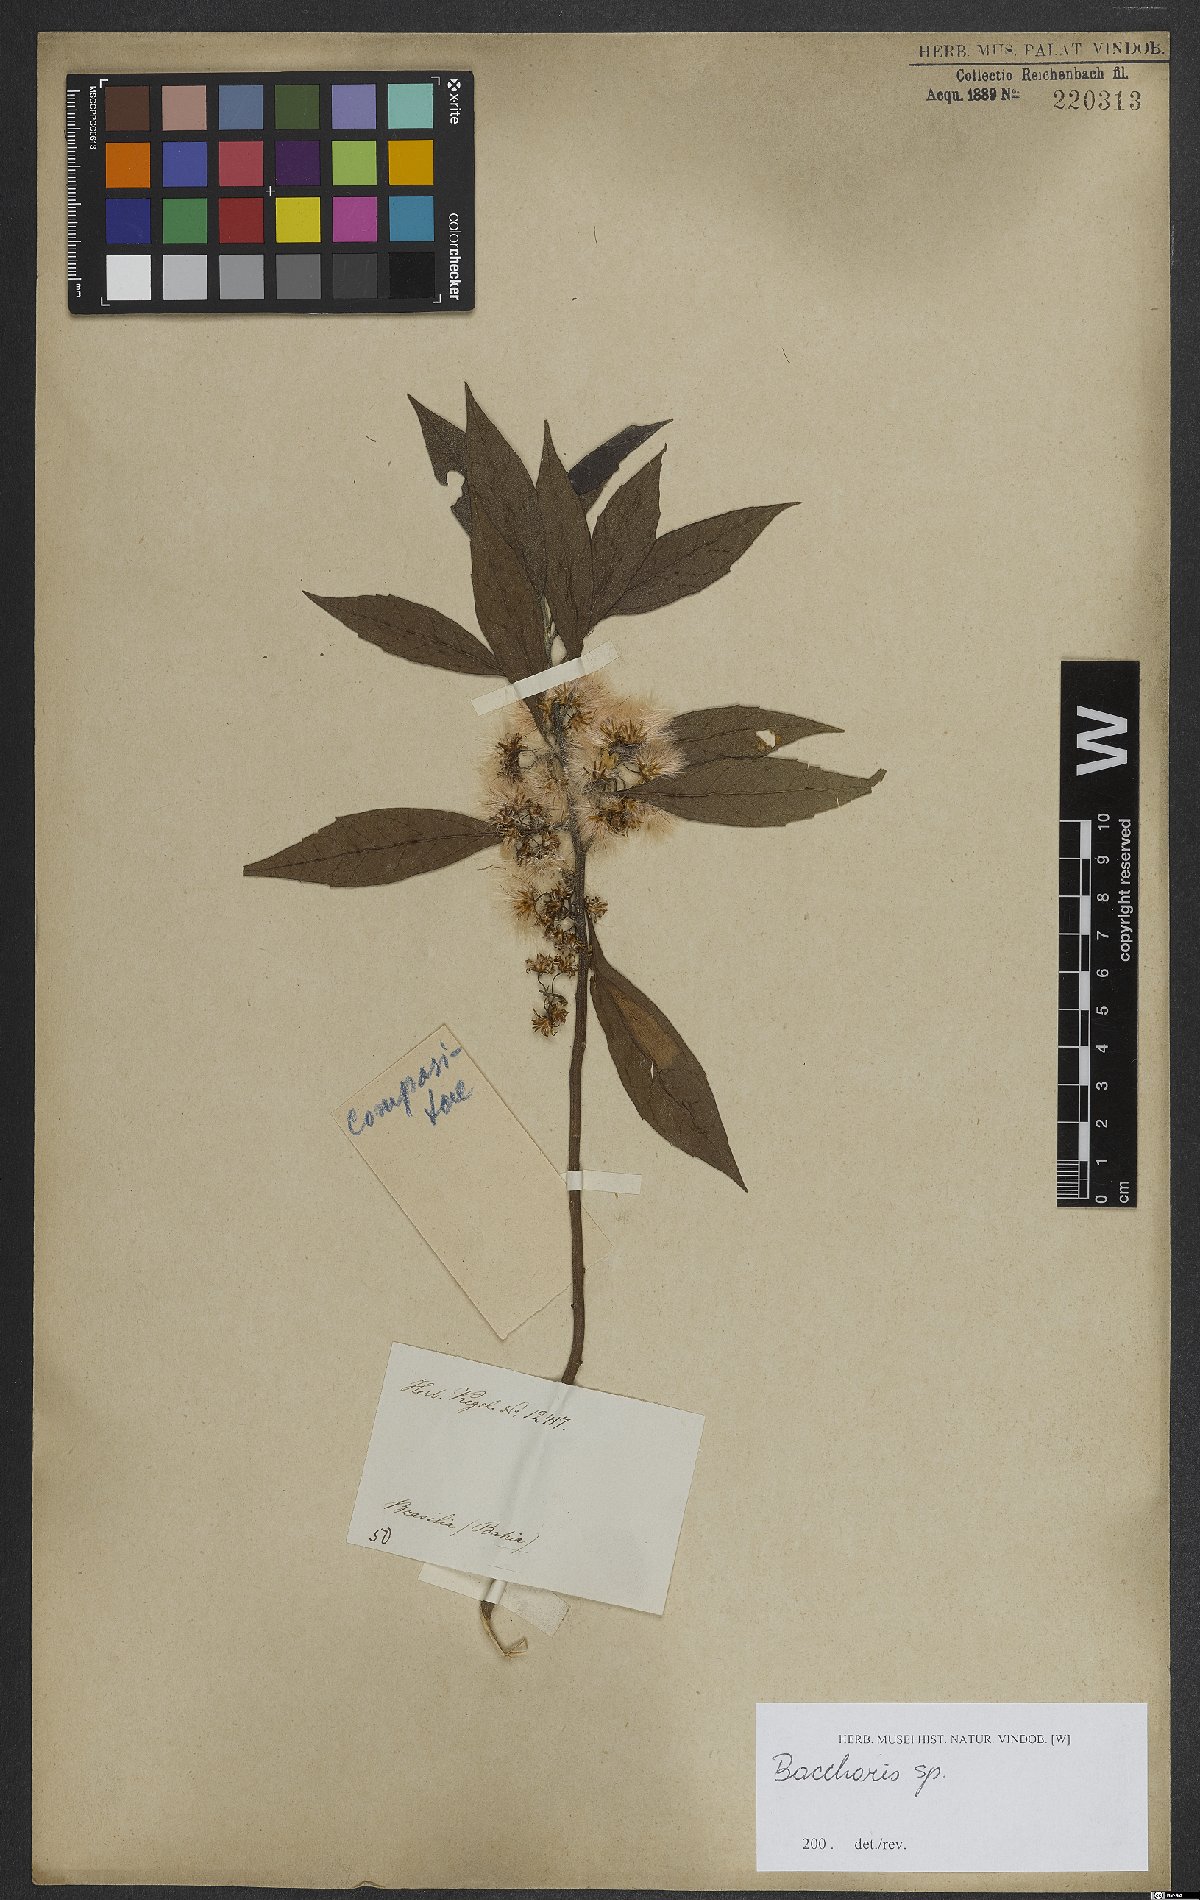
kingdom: Plantae
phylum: Tracheophyta
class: Magnoliopsida
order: Asterales
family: Asteraceae
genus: Baccharis
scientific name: Baccharis
